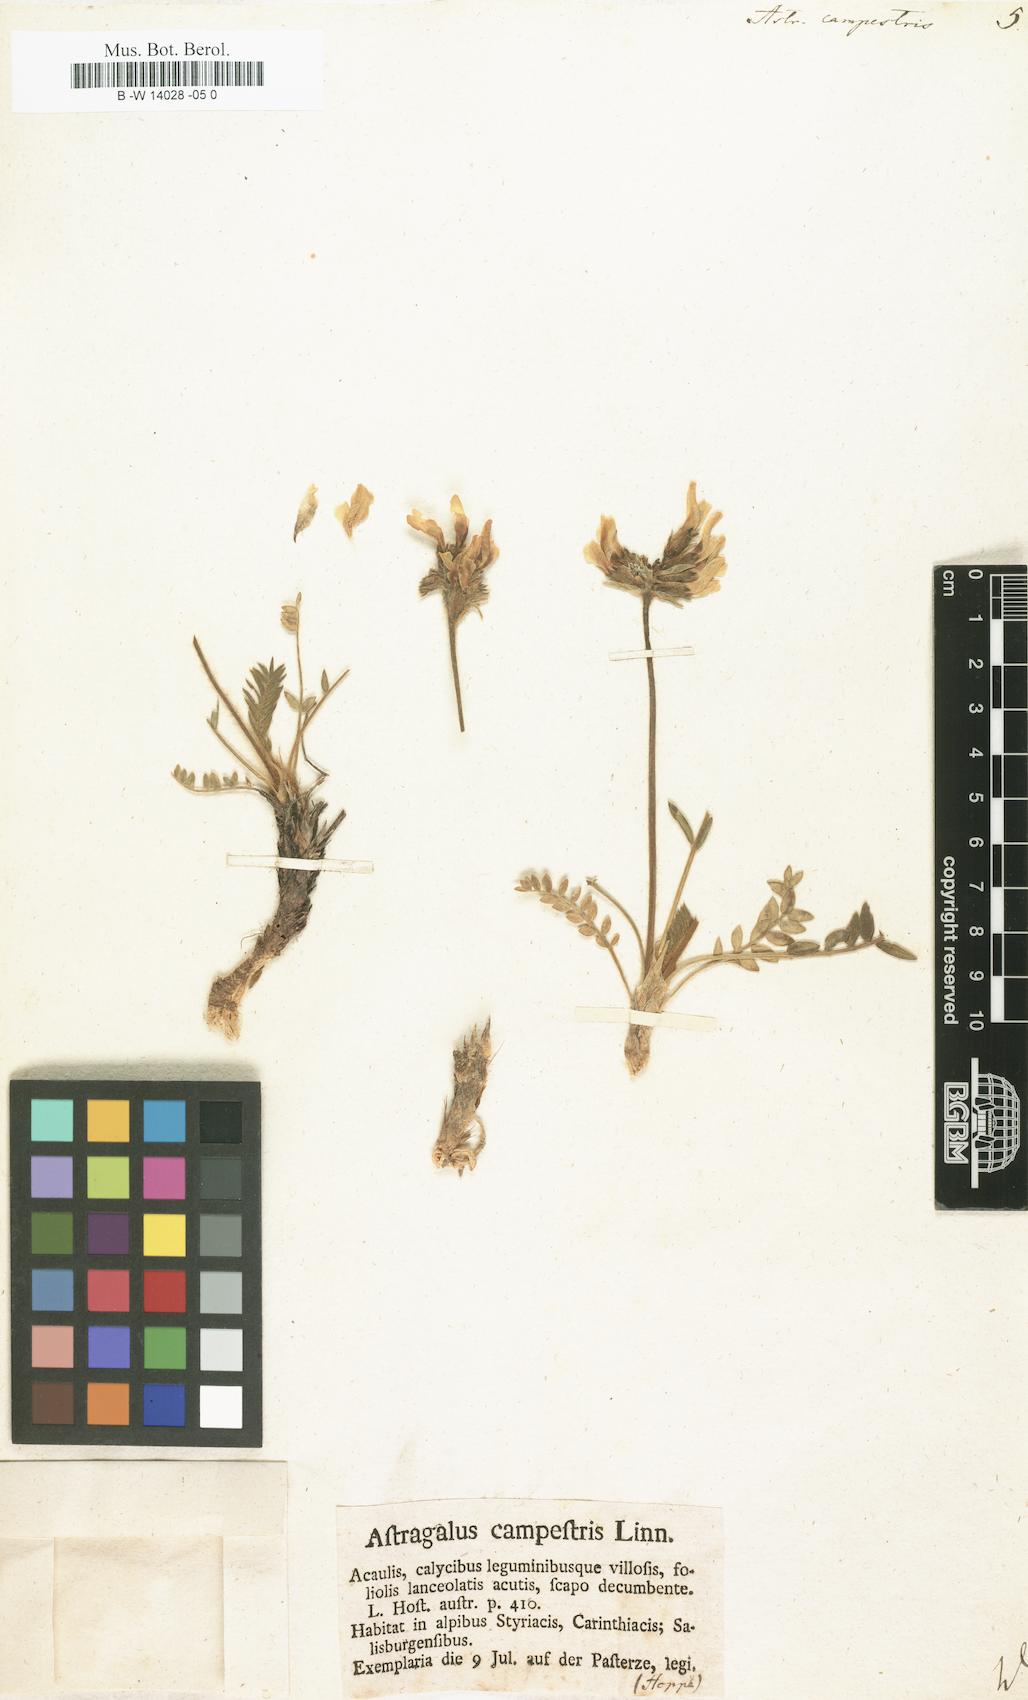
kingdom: Plantae
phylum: Tracheophyta
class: Magnoliopsida
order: Fabales
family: Fabaceae
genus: Oxytropis
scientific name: Oxytropis campestris
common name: Field locoweed
